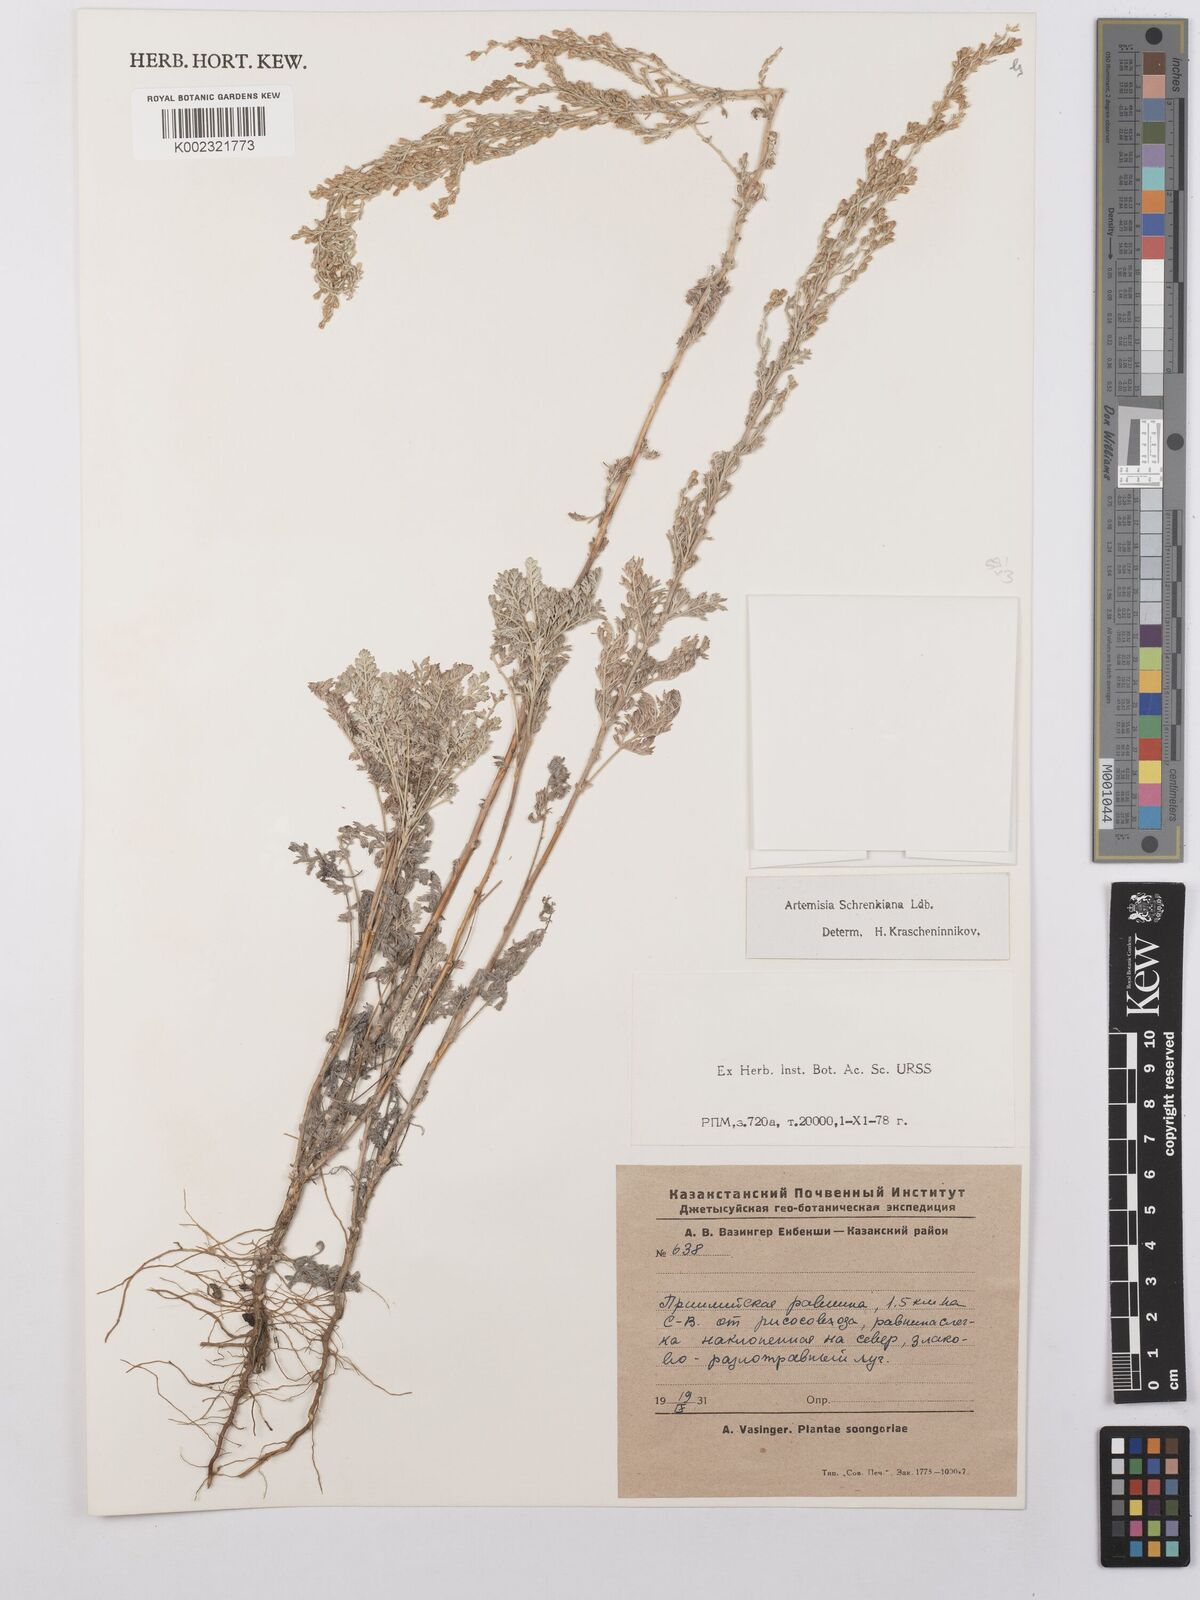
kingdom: Plantae
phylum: Tracheophyta
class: Magnoliopsida
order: Asterales
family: Asteraceae
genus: Artemisia
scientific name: Artemisia schrenkiana
